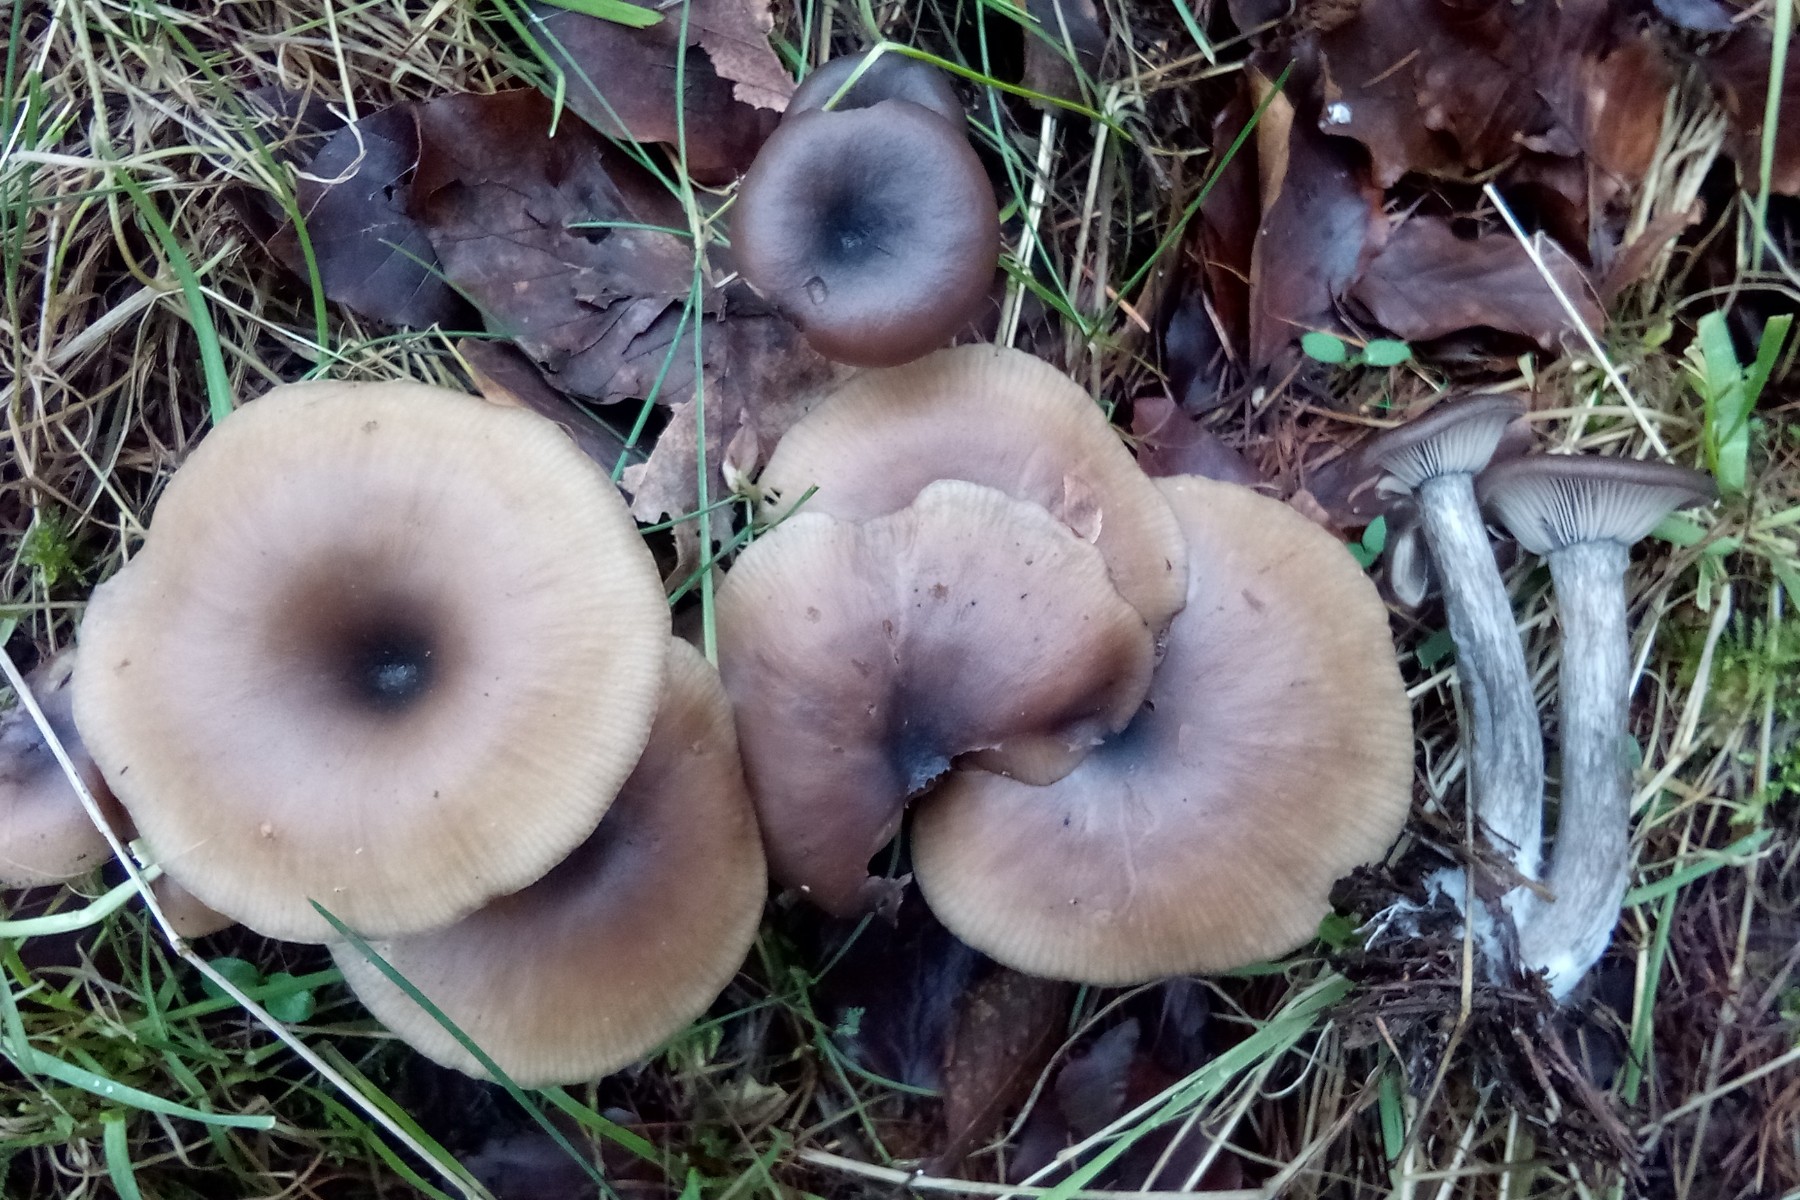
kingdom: Fungi
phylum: Basidiomycota
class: Agaricomycetes
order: Agaricales
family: Pseudoclitocybaceae
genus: Pseudoclitocybe
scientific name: Pseudoclitocybe cyathiformis
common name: almindelig bægertragthat
